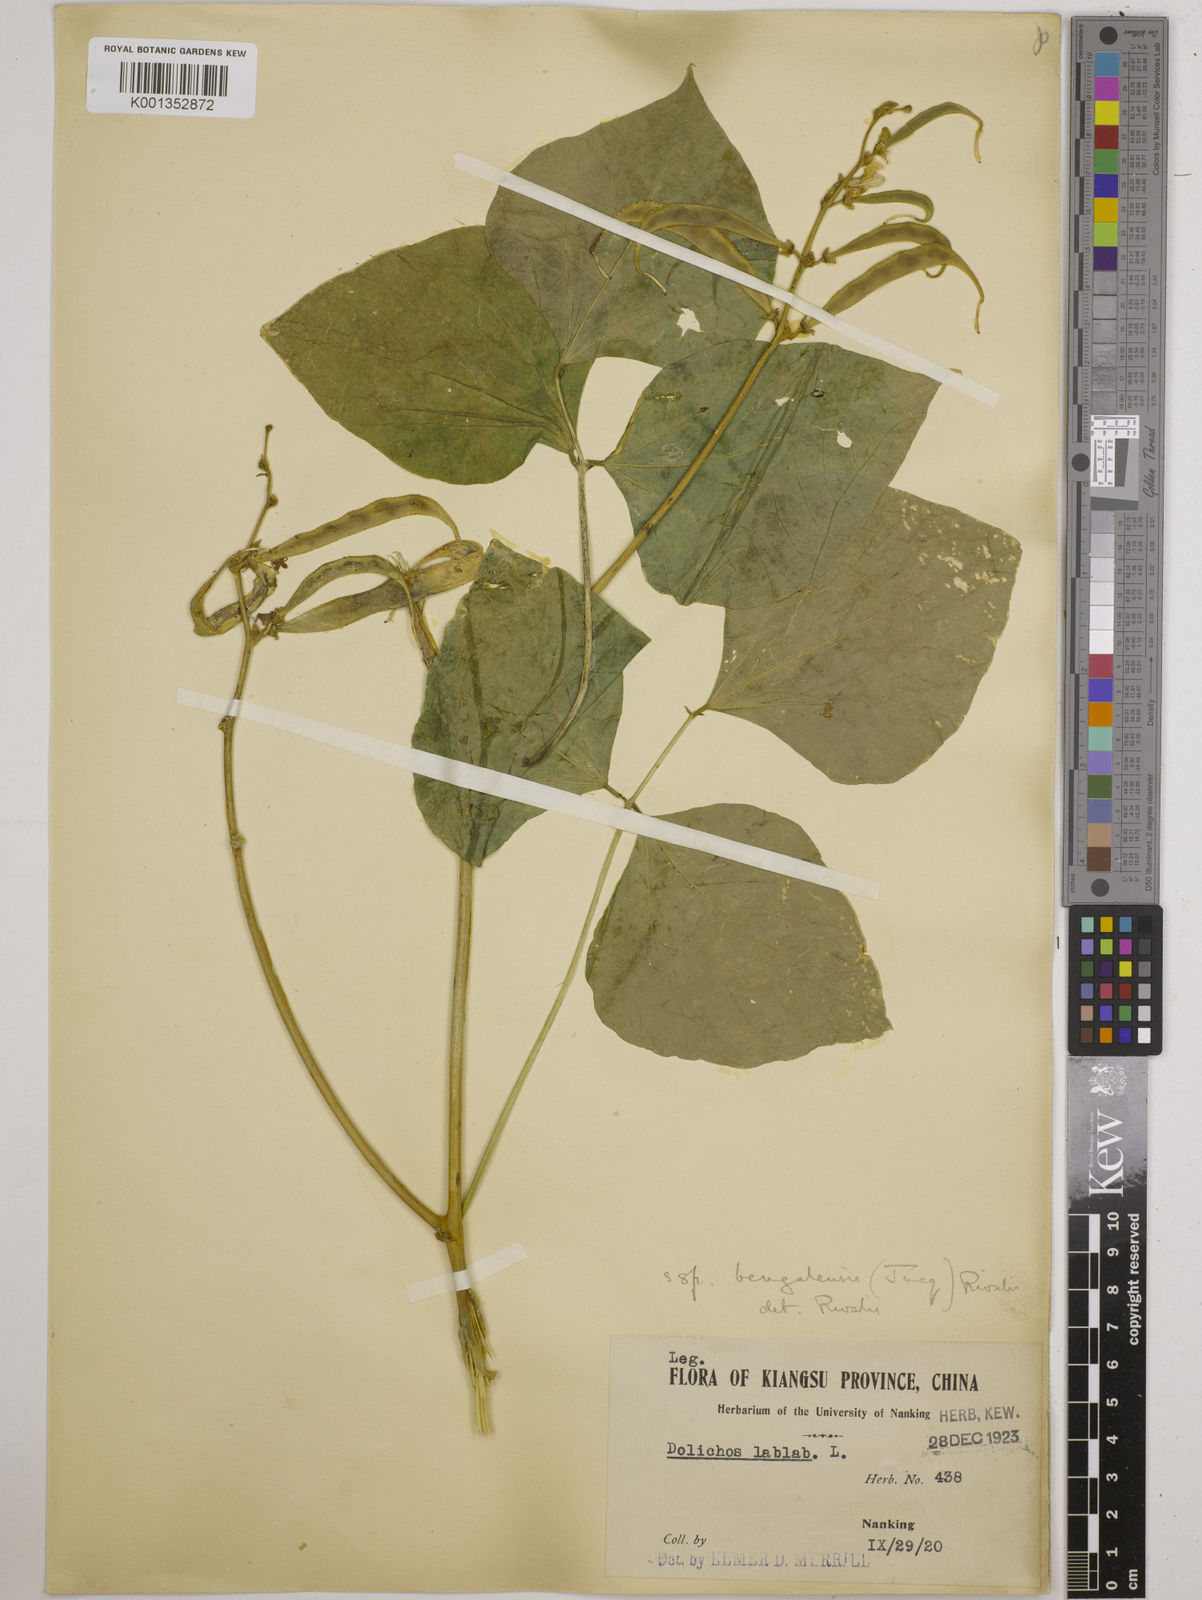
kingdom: Plantae
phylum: Tracheophyta
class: Magnoliopsida
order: Fabales
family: Fabaceae
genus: Lablab
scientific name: Lablab purpureus
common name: Lablab-bean
